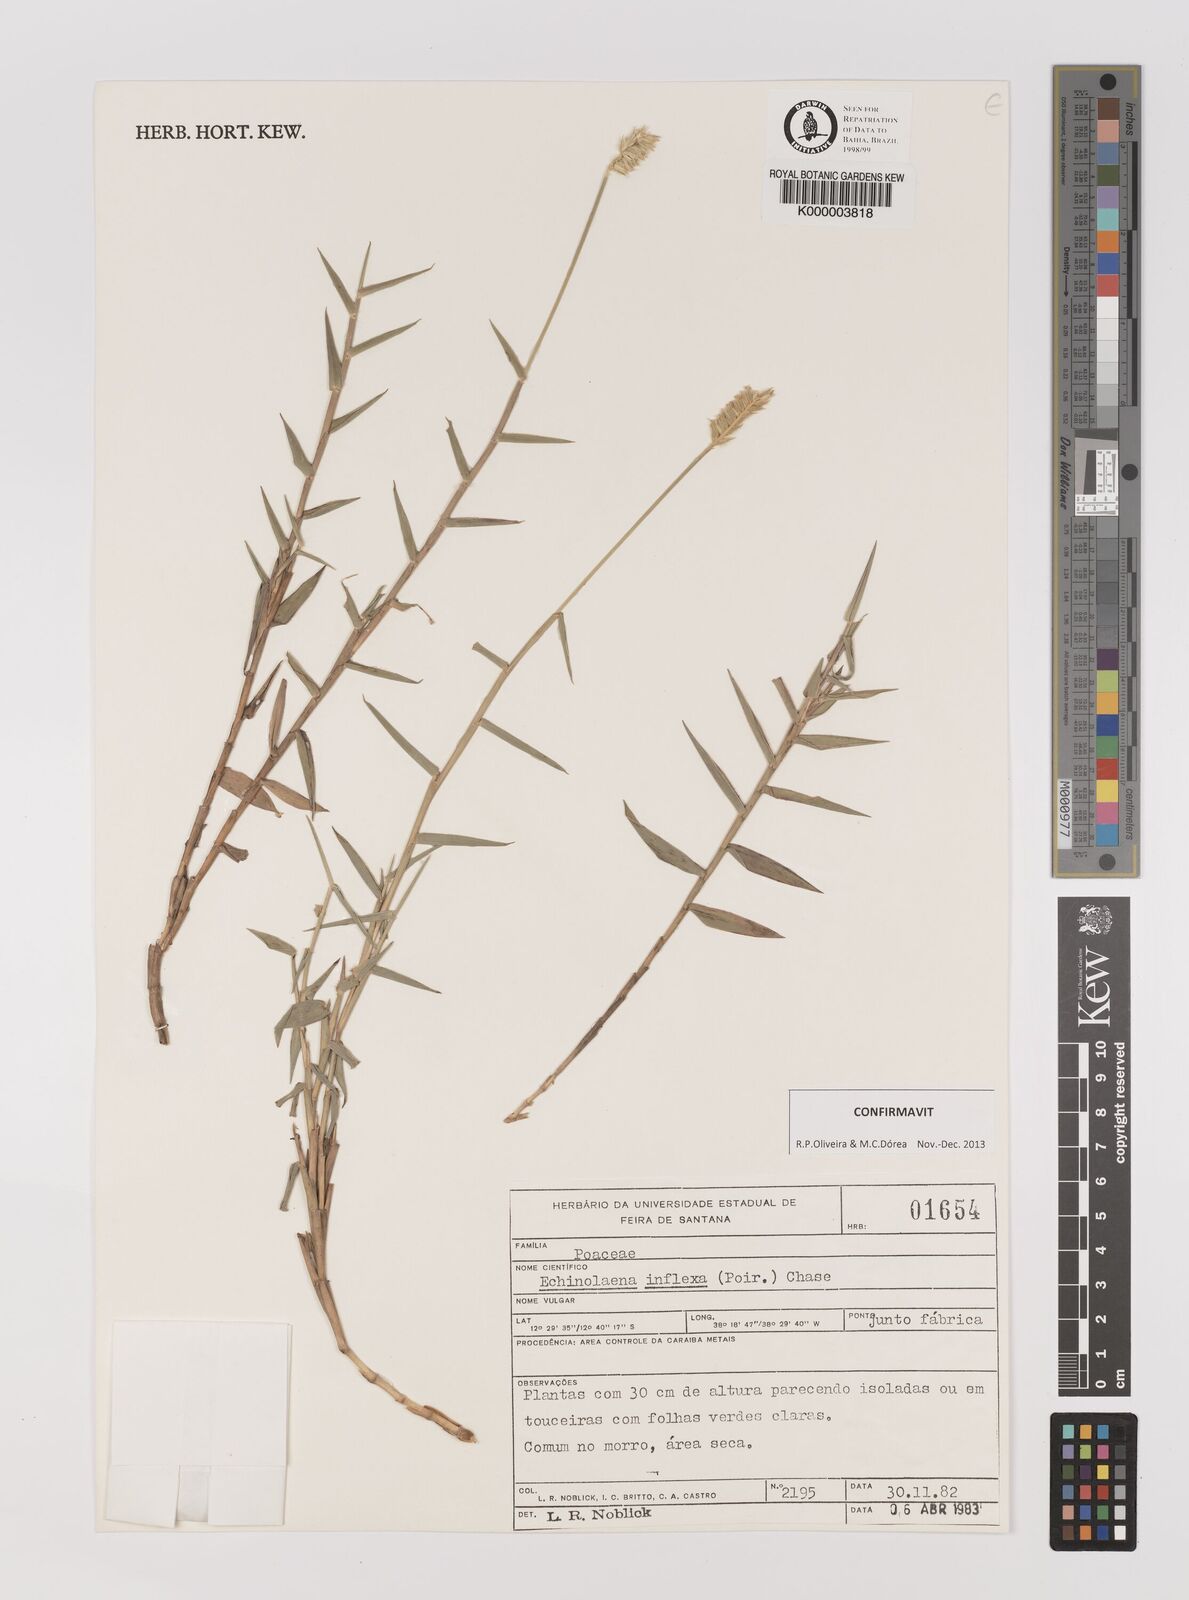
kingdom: Plantae
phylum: Tracheophyta
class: Liliopsida
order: Poales
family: Poaceae
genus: Echinolaena
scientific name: Echinolaena inflexa
